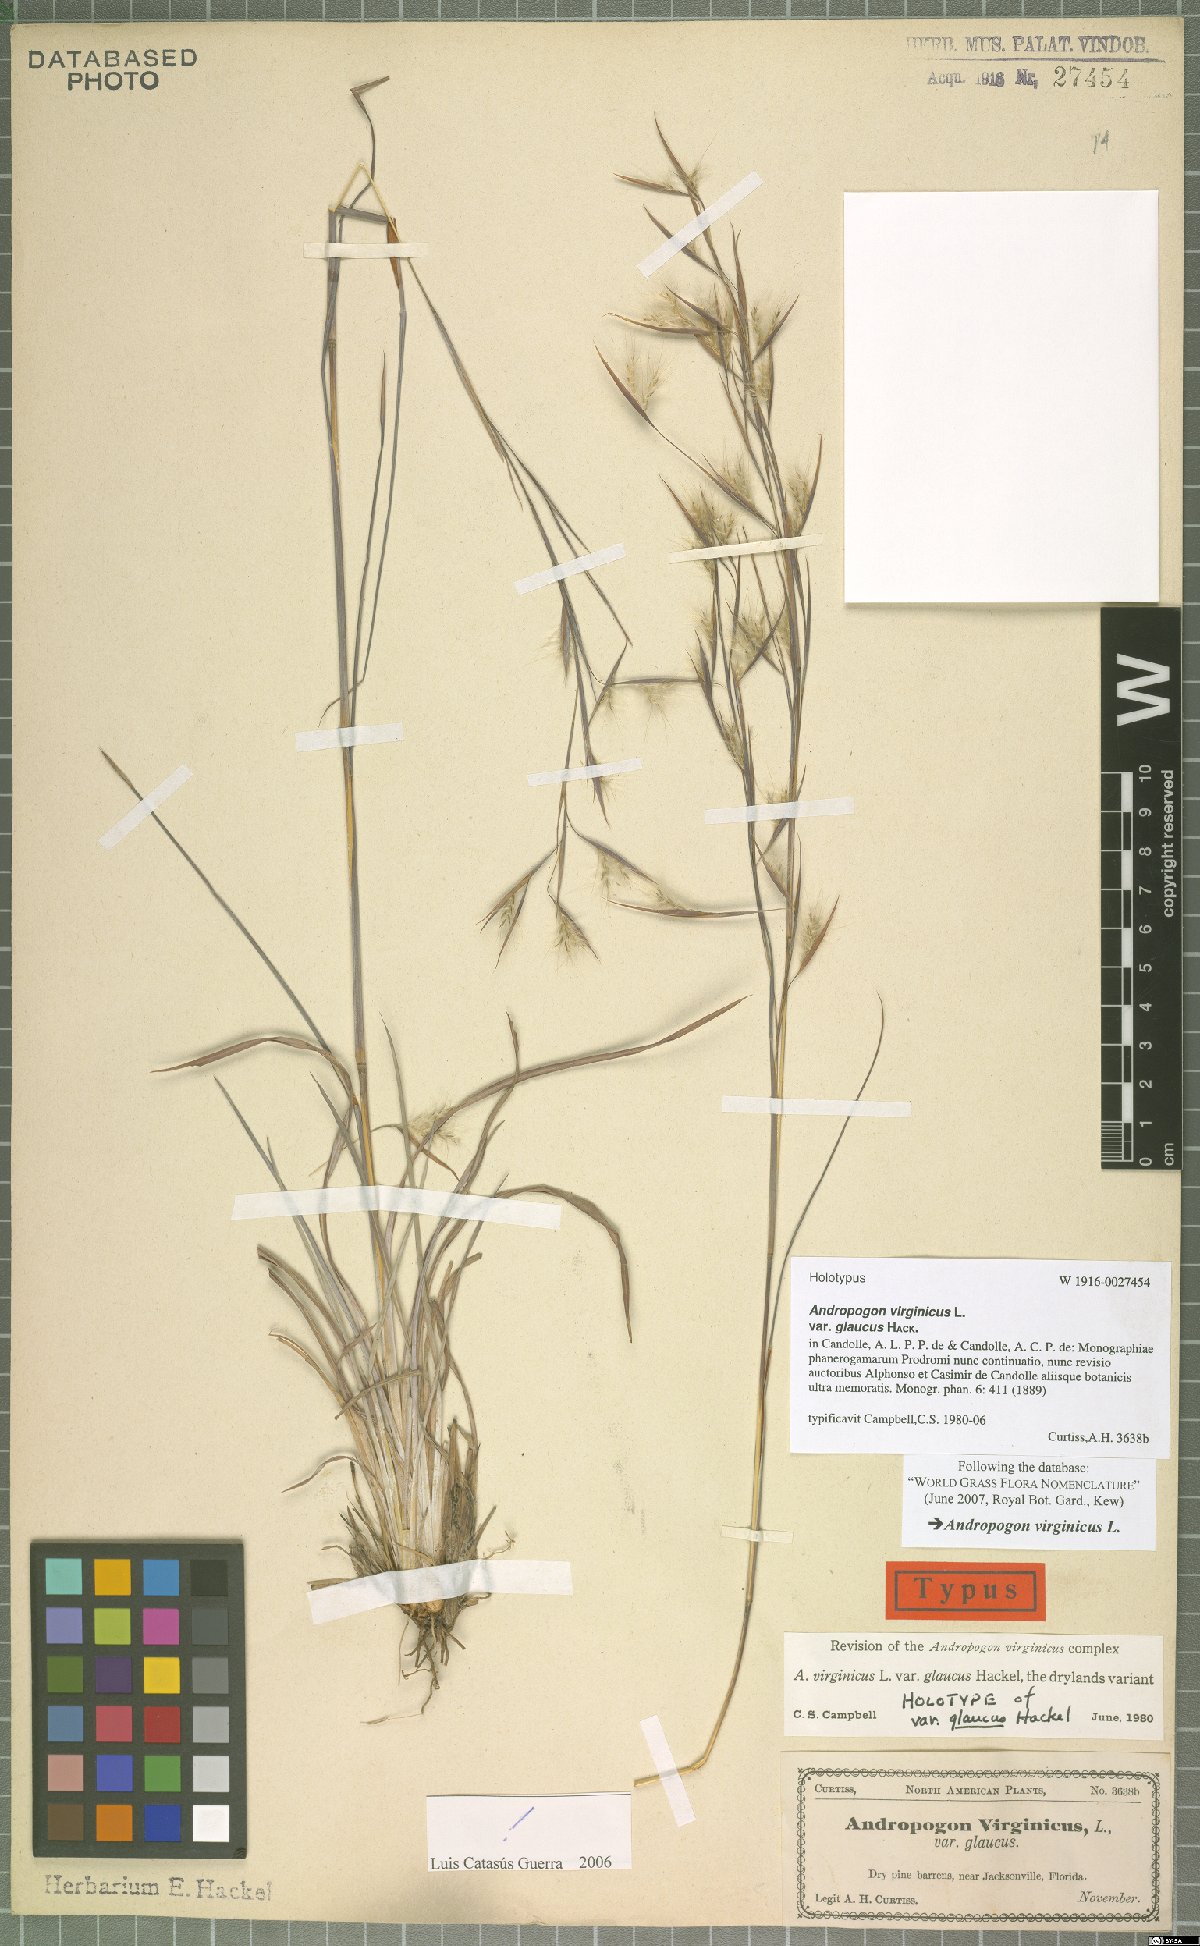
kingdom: Plantae
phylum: Tracheophyta
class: Liliopsida
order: Poales
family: Poaceae
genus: Andropogon
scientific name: Andropogon capillipes
